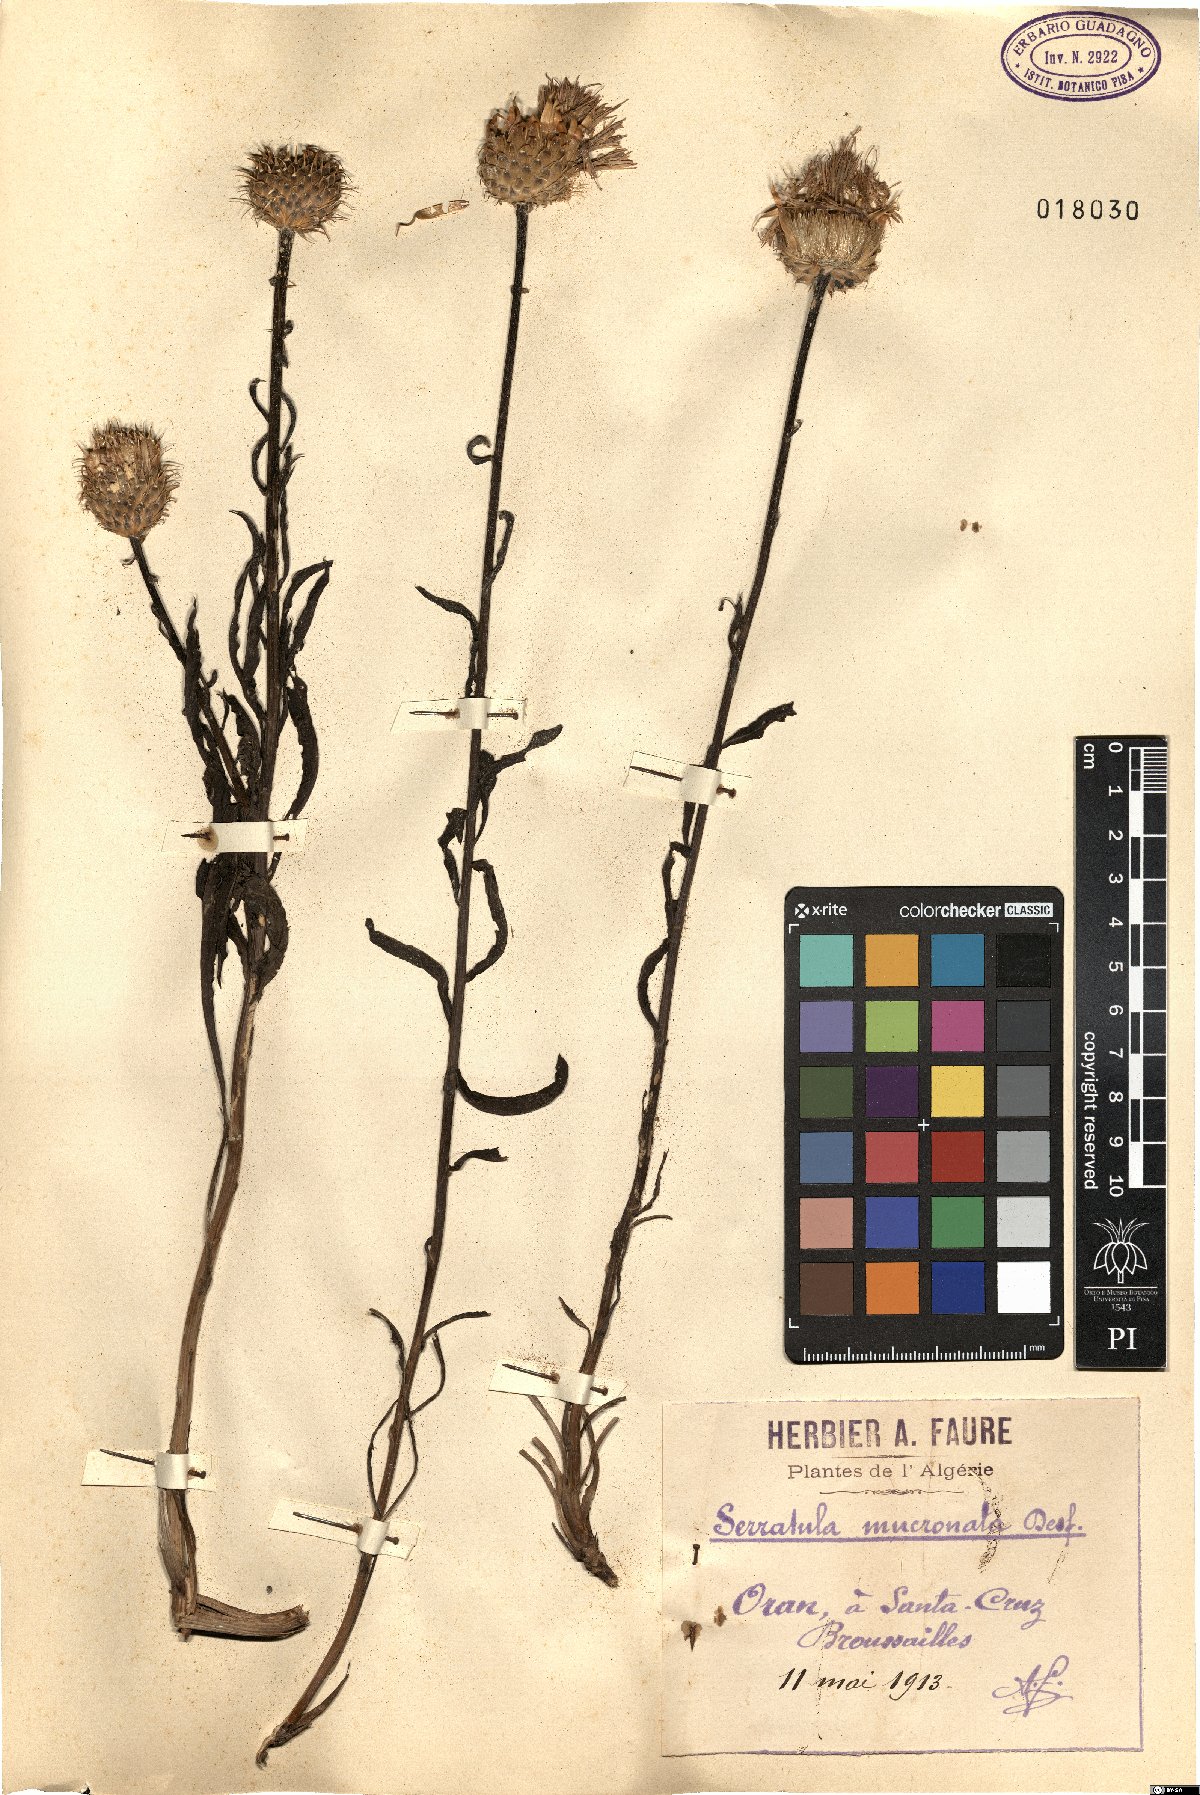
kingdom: Plantae
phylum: Tracheophyta
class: Magnoliopsida
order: Asterales
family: Asteraceae
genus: Klasea
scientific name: Klasea flavescens
